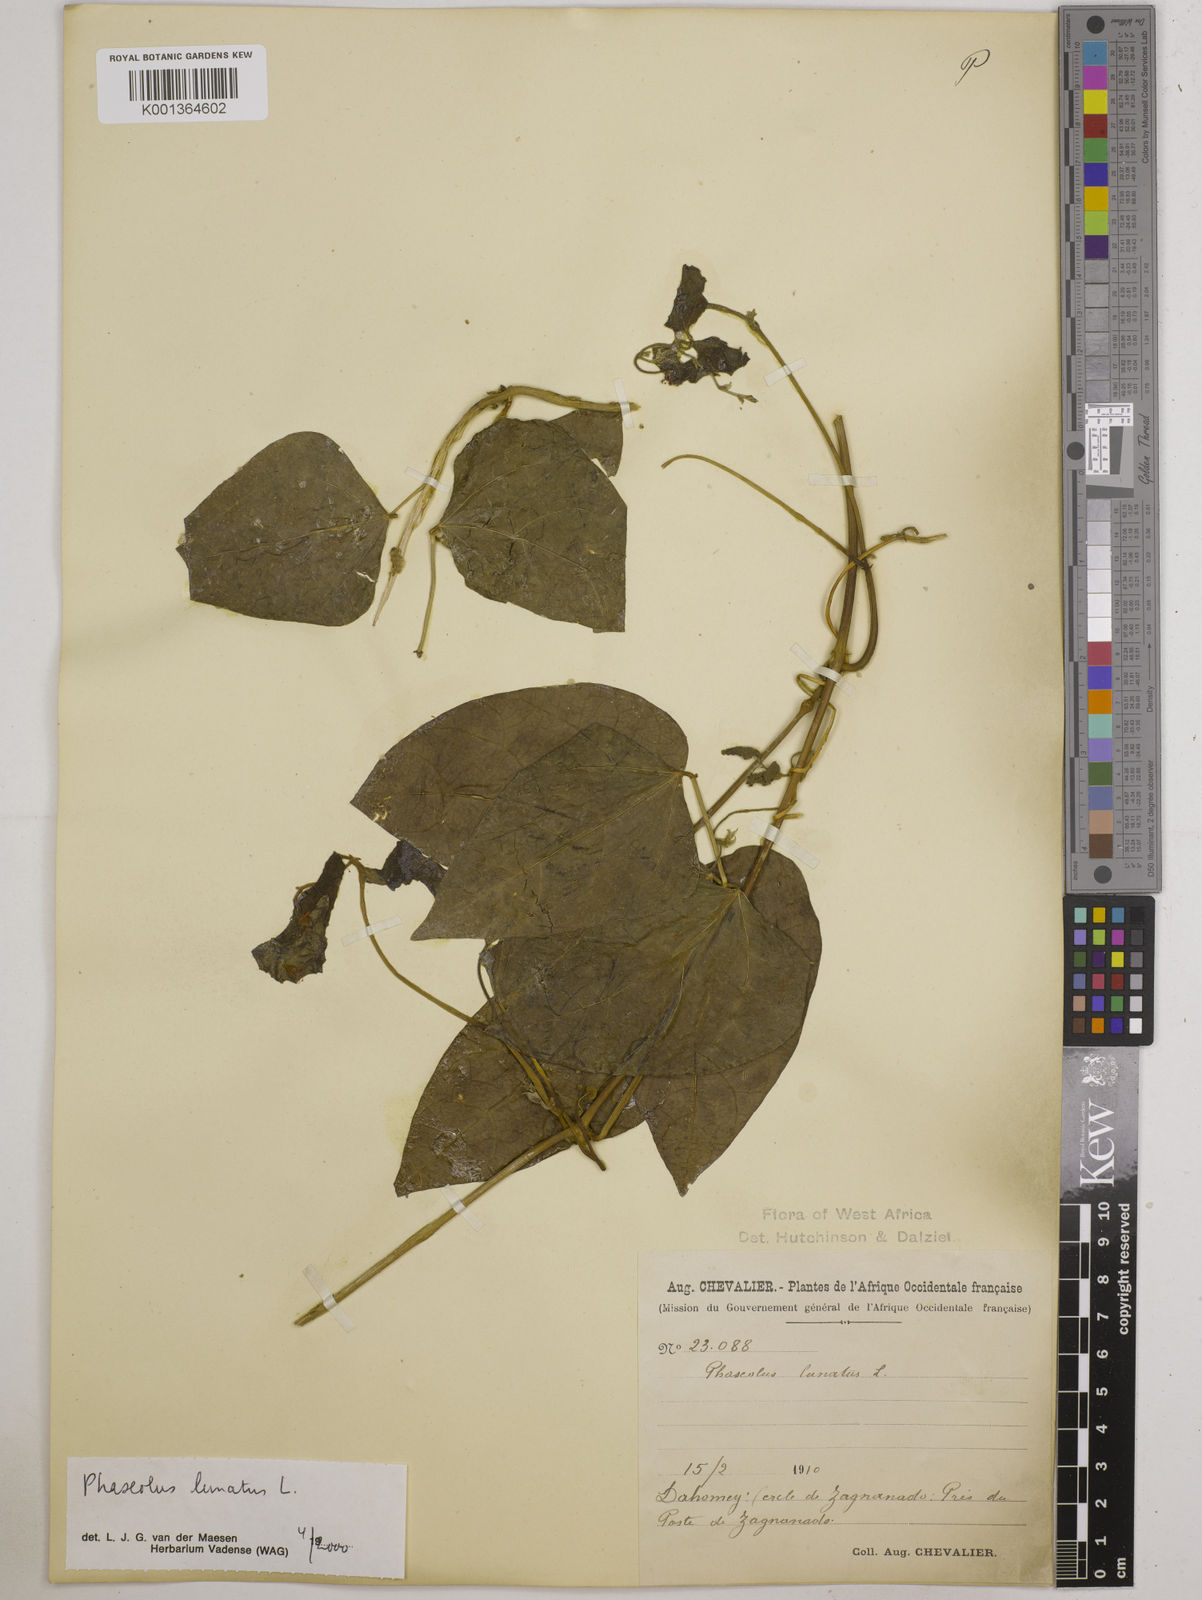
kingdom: Plantae
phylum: Tracheophyta
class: Magnoliopsida
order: Fabales
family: Fabaceae
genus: Phaseolus
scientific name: Phaseolus lunatus
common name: Sieva bean
